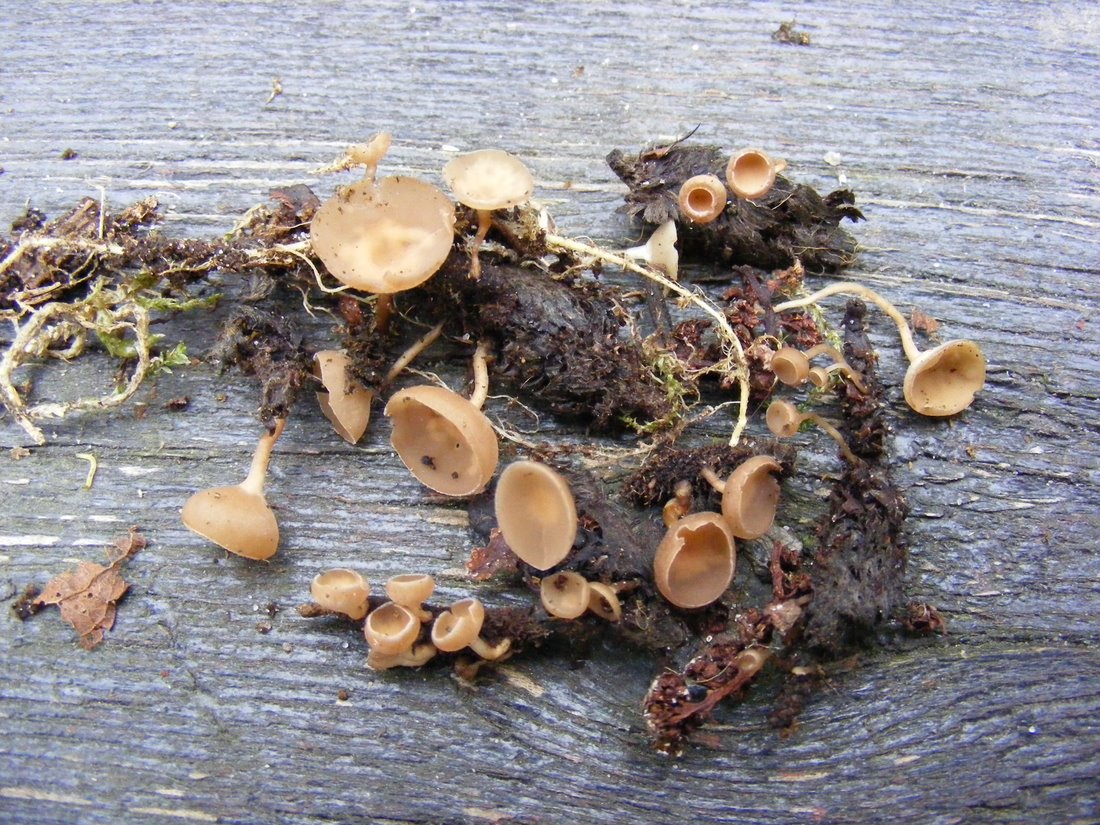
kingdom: Fungi
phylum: Ascomycota
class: Leotiomycetes
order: Helotiales
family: Sclerotiniaceae
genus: Ciboria
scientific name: Ciboria amentacea
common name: ellerakle-knoldskive
